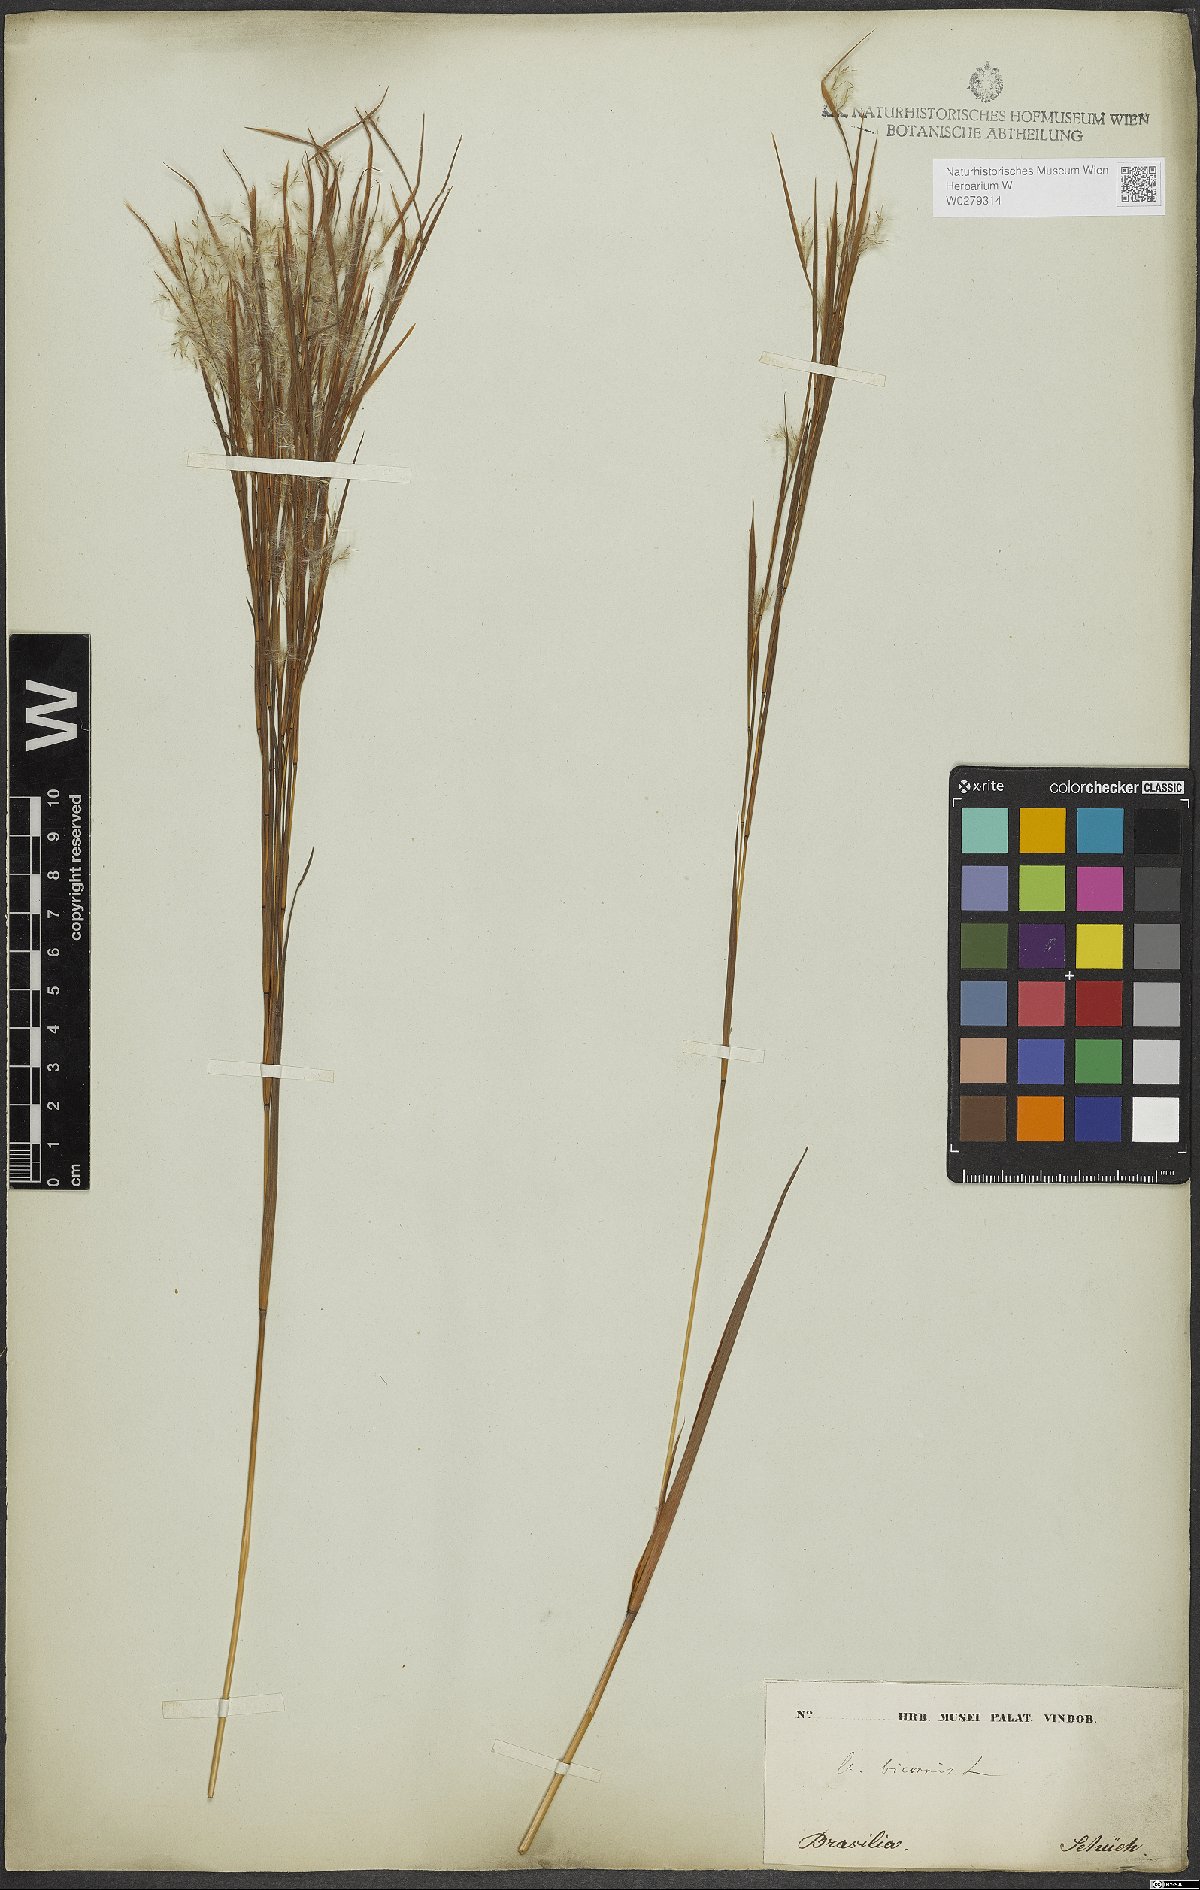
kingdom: Plantae
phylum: Tracheophyta
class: Liliopsida
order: Poales
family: Poaceae
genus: Andropogon
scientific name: Andropogon bicornis
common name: West indian foxtail grass
